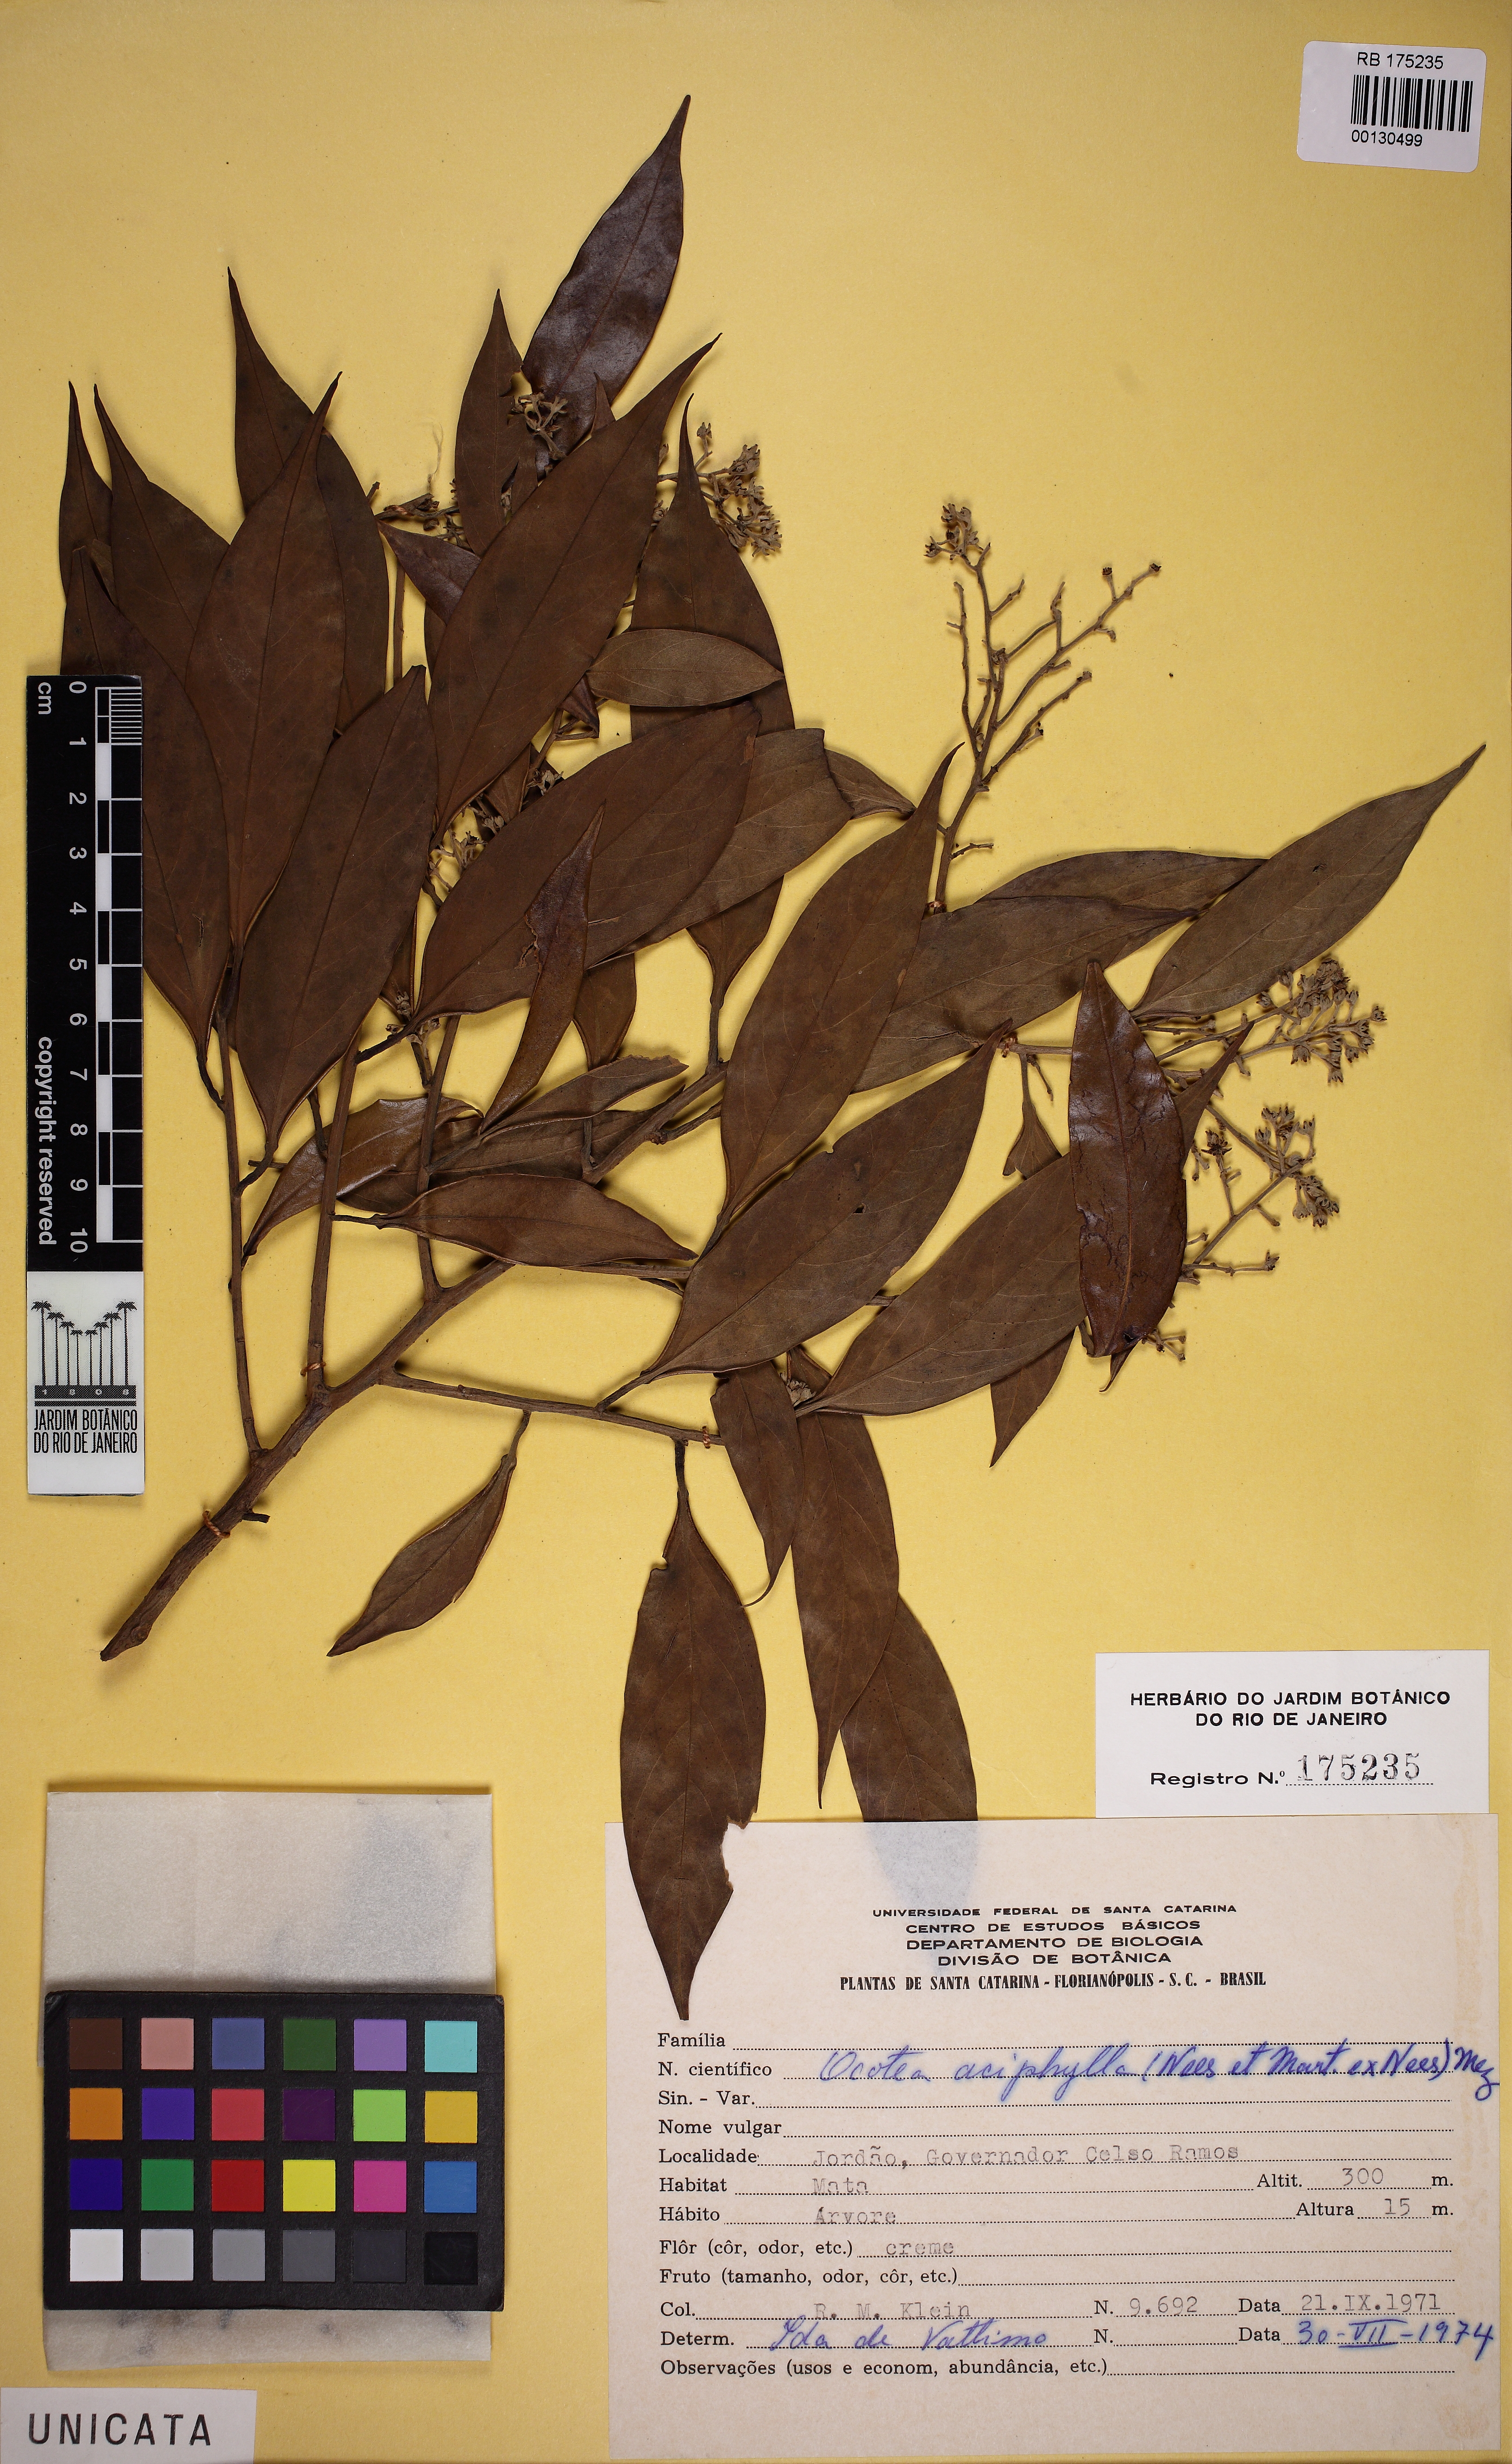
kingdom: Plantae
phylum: Tracheophyta
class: Magnoliopsida
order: Laurales
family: Lauraceae
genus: Ocotea
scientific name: Ocotea aciphylla
